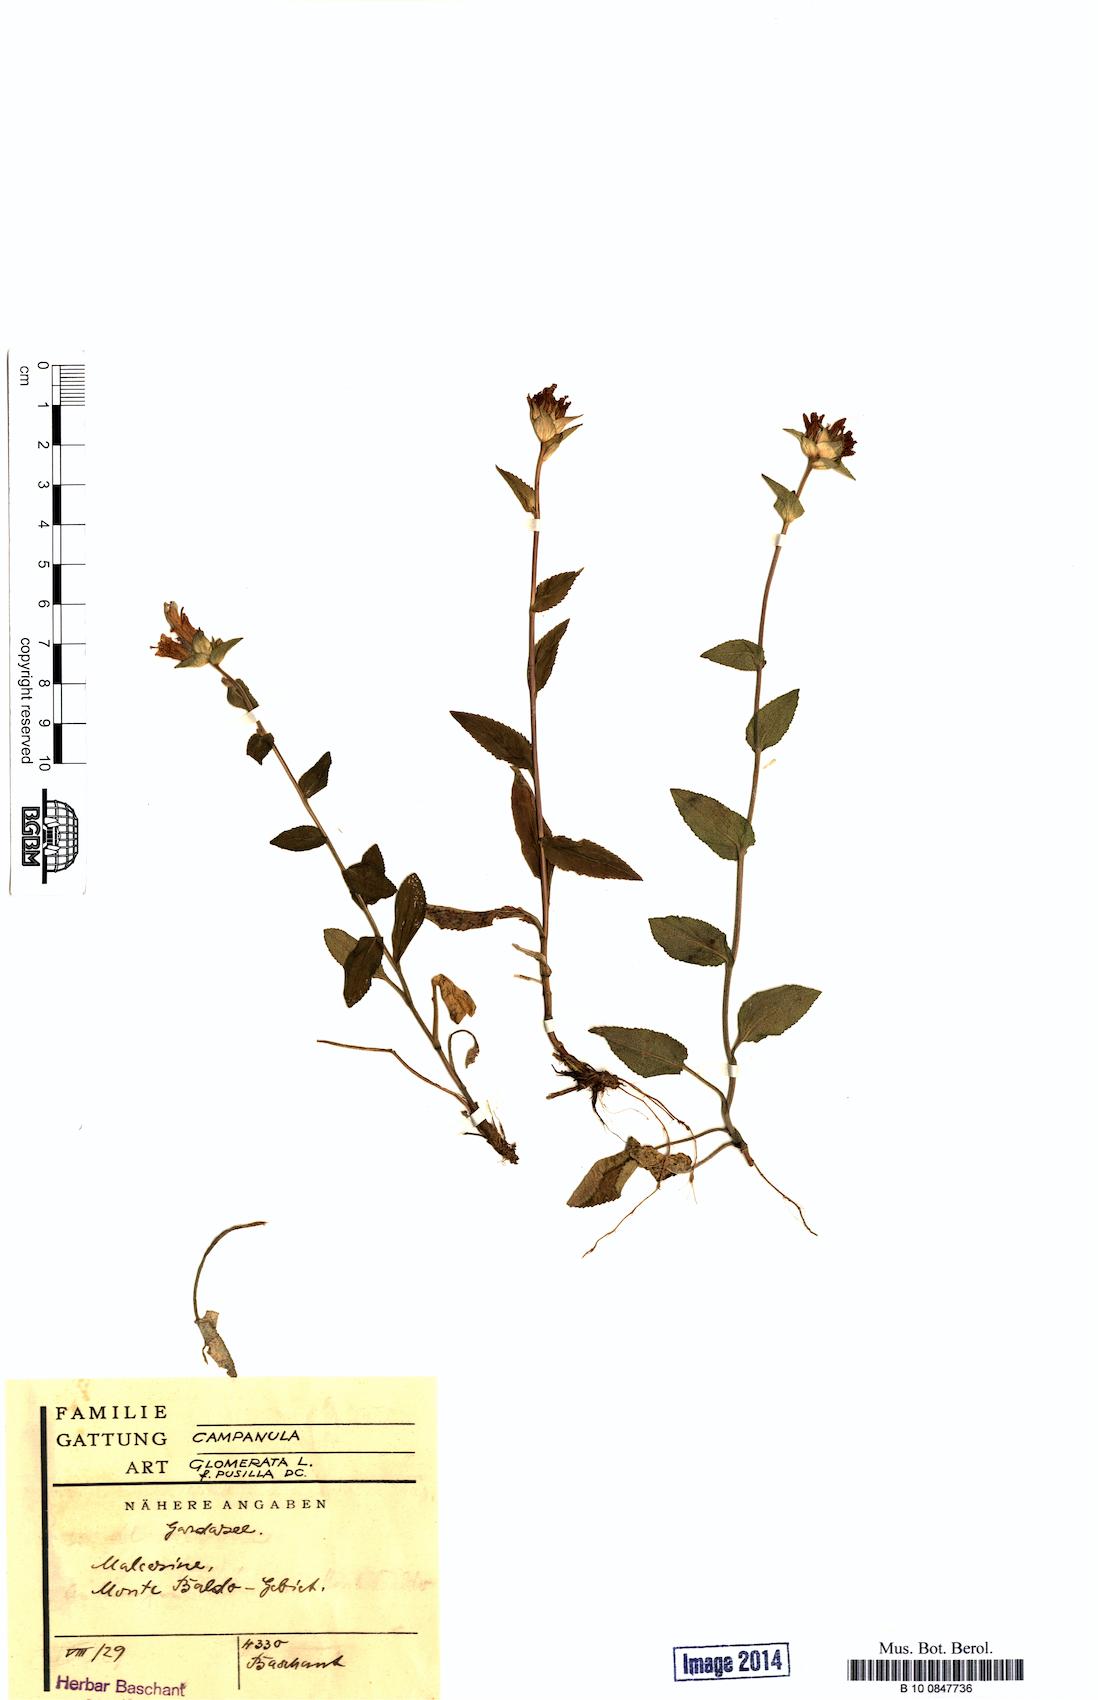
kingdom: Plantae
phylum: Tracheophyta
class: Magnoliopsida
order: Asterales
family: Campanulaceae
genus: Campanula
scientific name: Campanula glomerata
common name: Clustered bellflower
